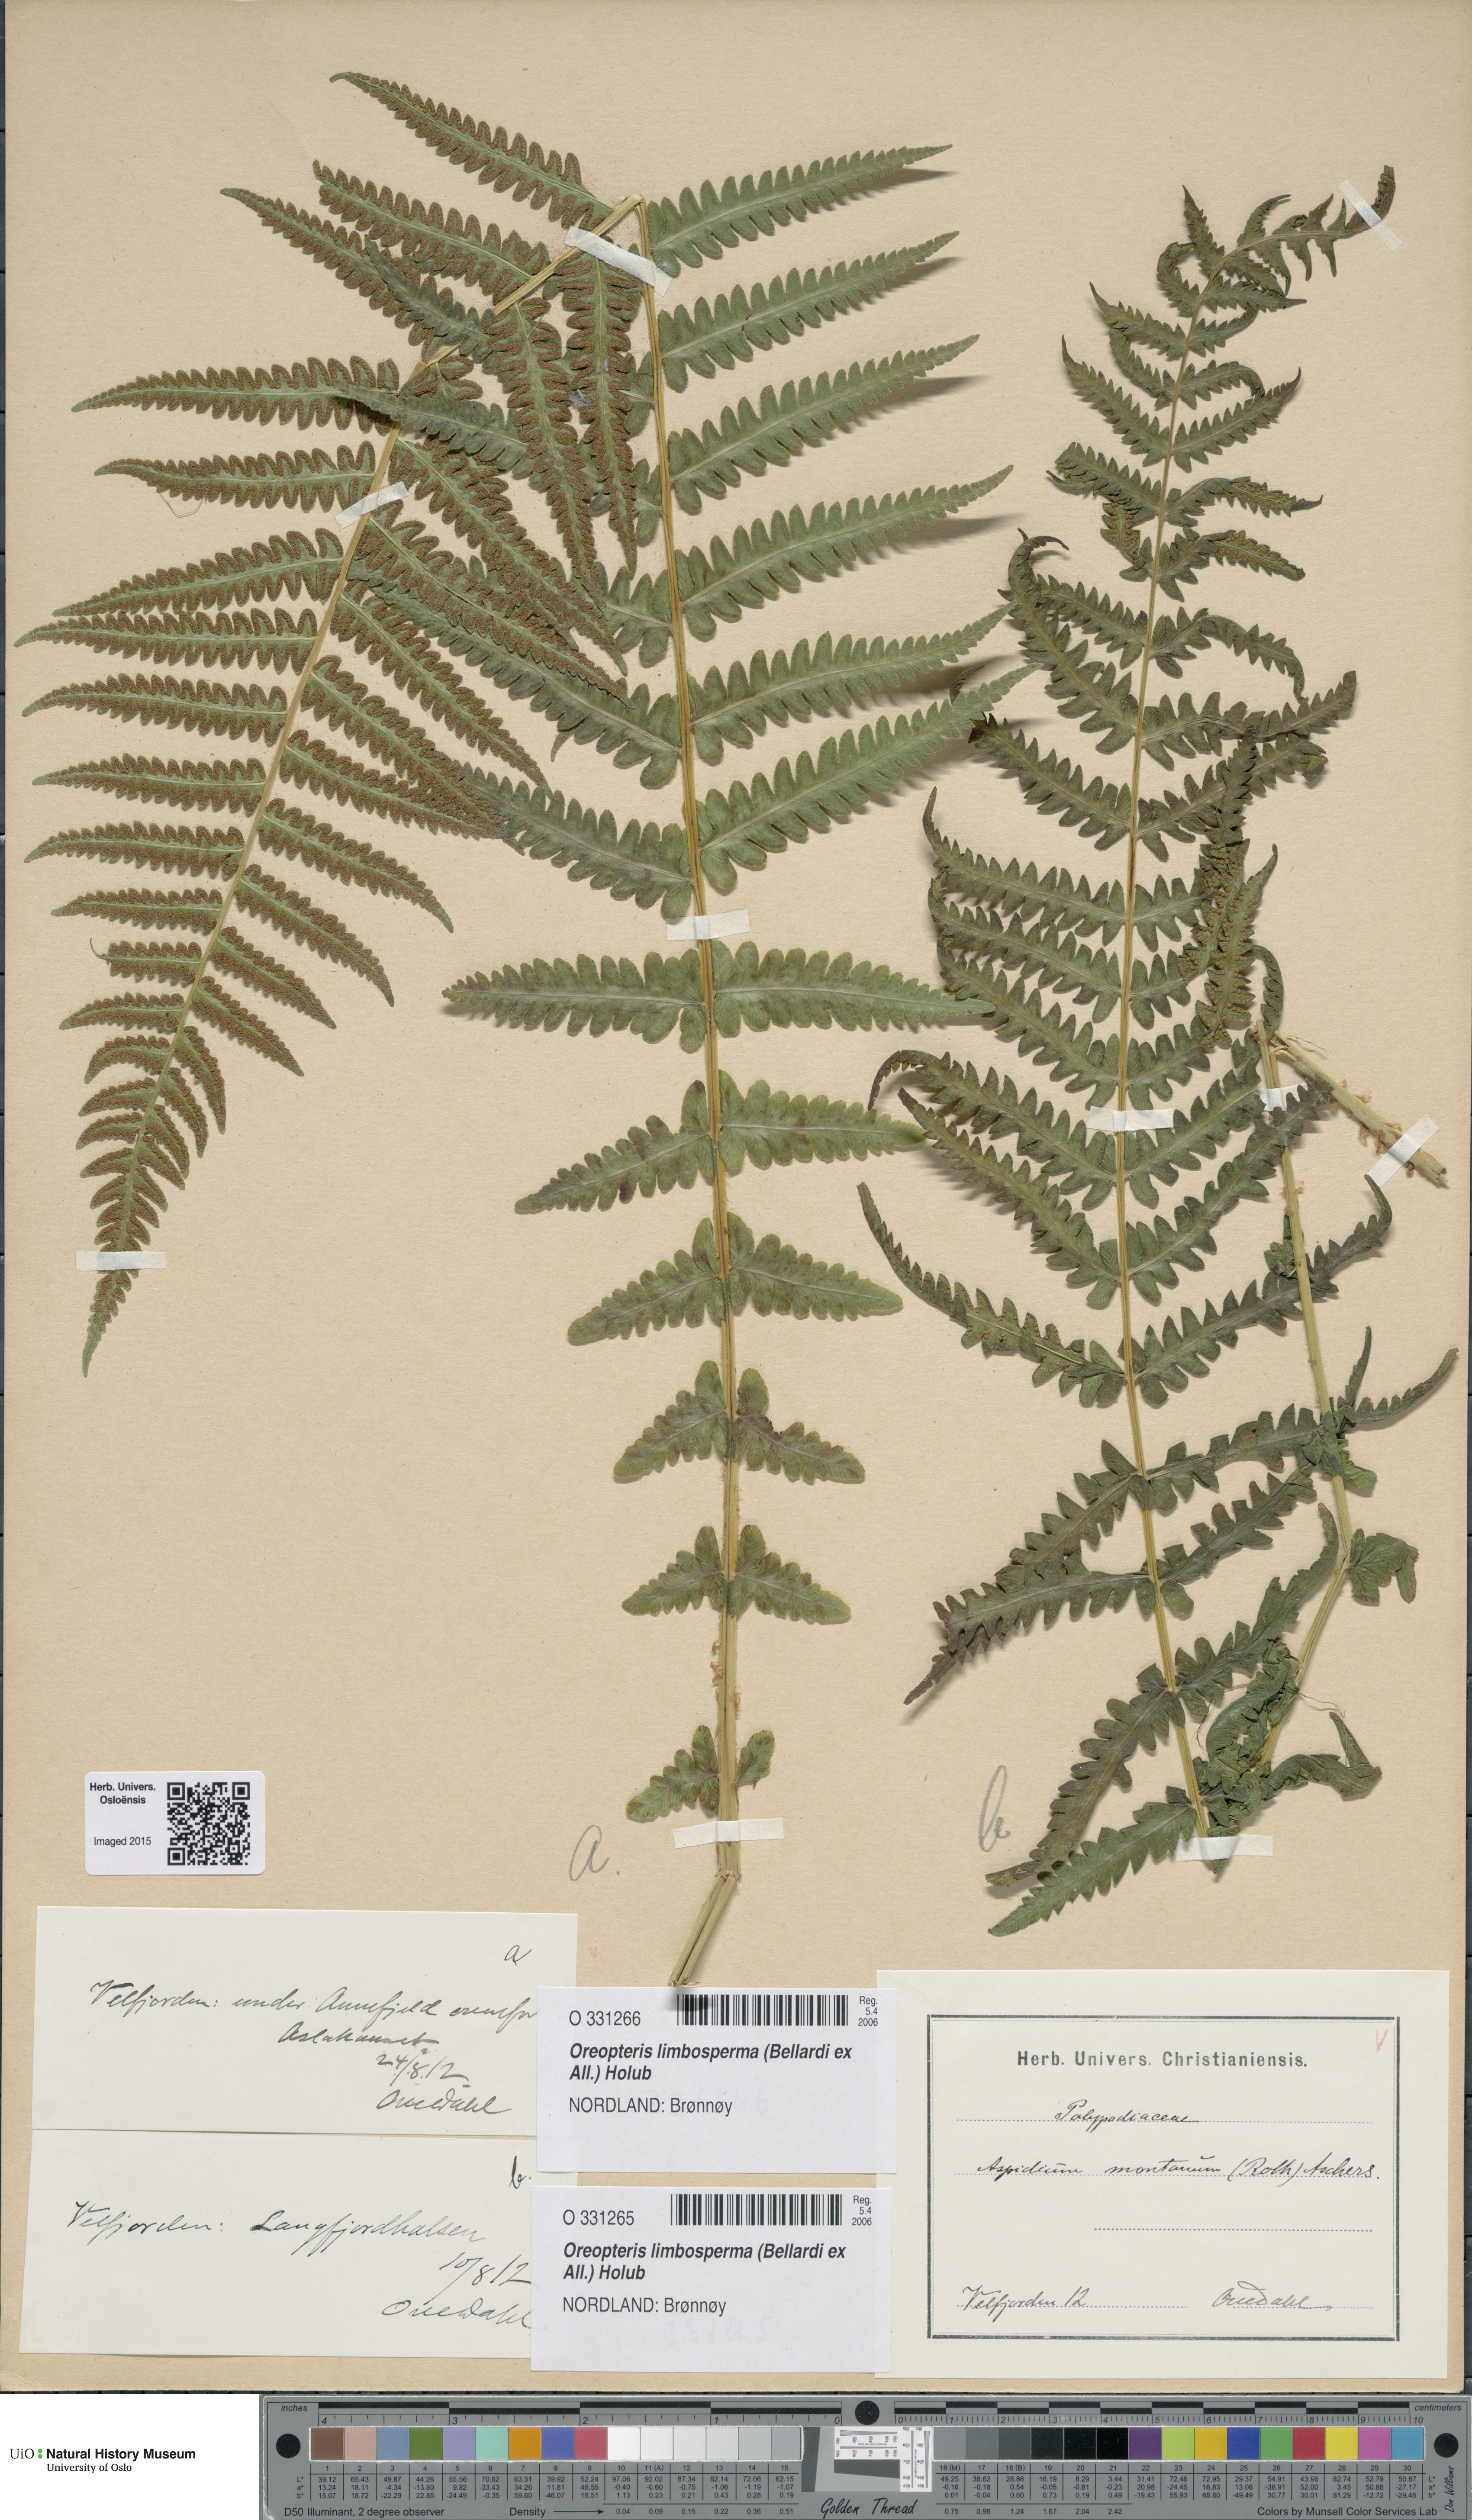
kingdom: Plantae
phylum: Tracheophyta
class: Polypodiopsida
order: Polypodiales
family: Thelypteridaceae
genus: Oreopteris
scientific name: Oreopteris limbosperma
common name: Lemon-scented fern
